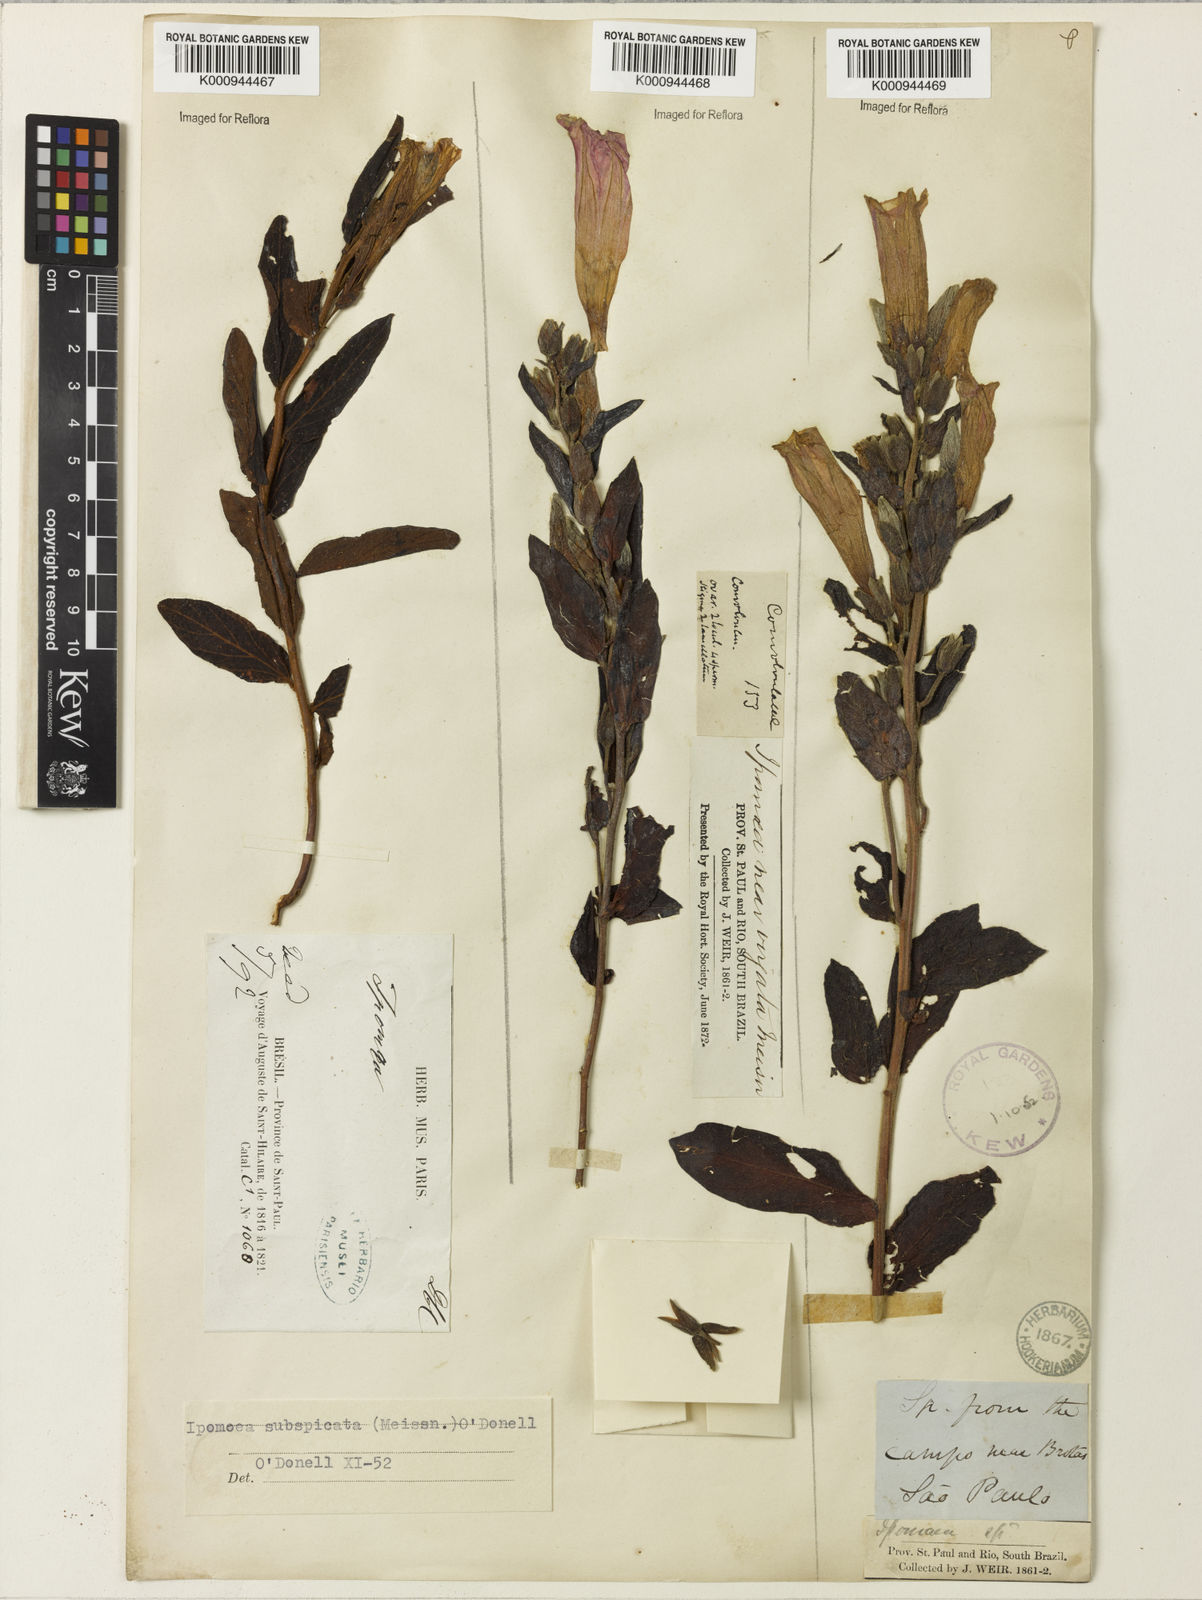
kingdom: Plantae
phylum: Tracheophyta
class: Magnoliopsida
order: Solanales
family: Convolvulaceae
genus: Ipomoea
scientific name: Ipomoea subspicata
